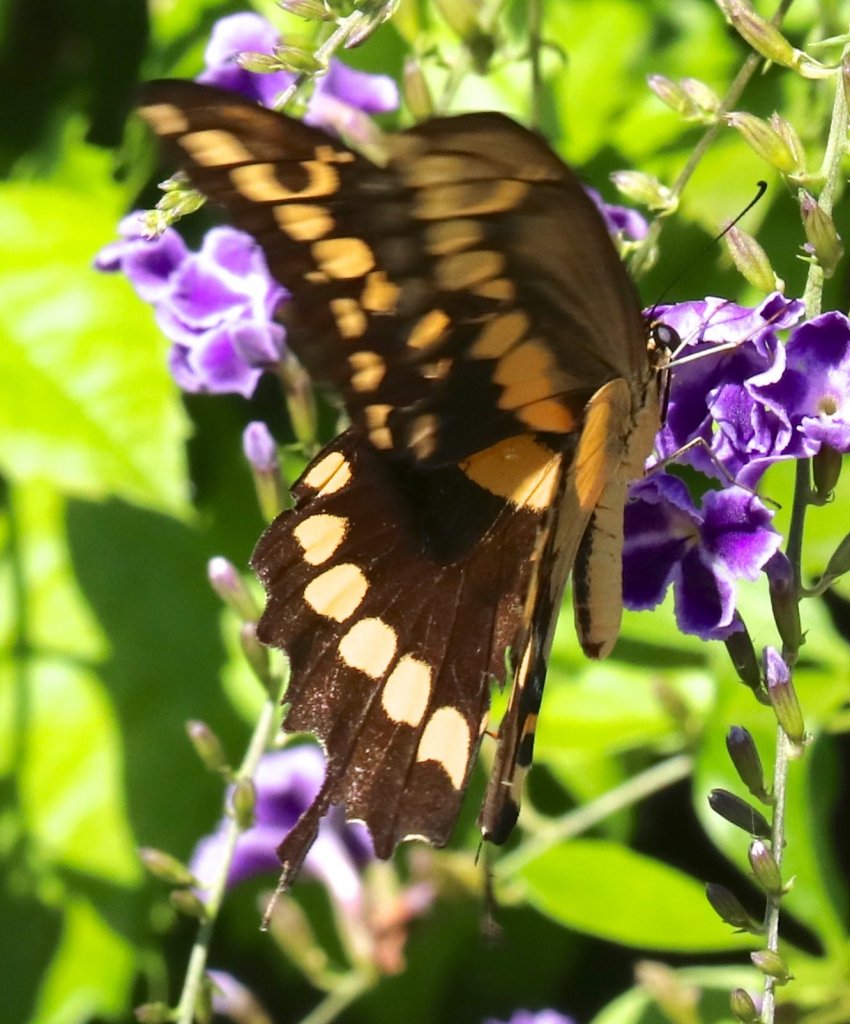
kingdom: Animalia
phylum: Arthropoda
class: Insecta
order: Lepidoptera
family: Papilionidae
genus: Papilio
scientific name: Papilio rumiko
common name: Western Giant Swallowtail
